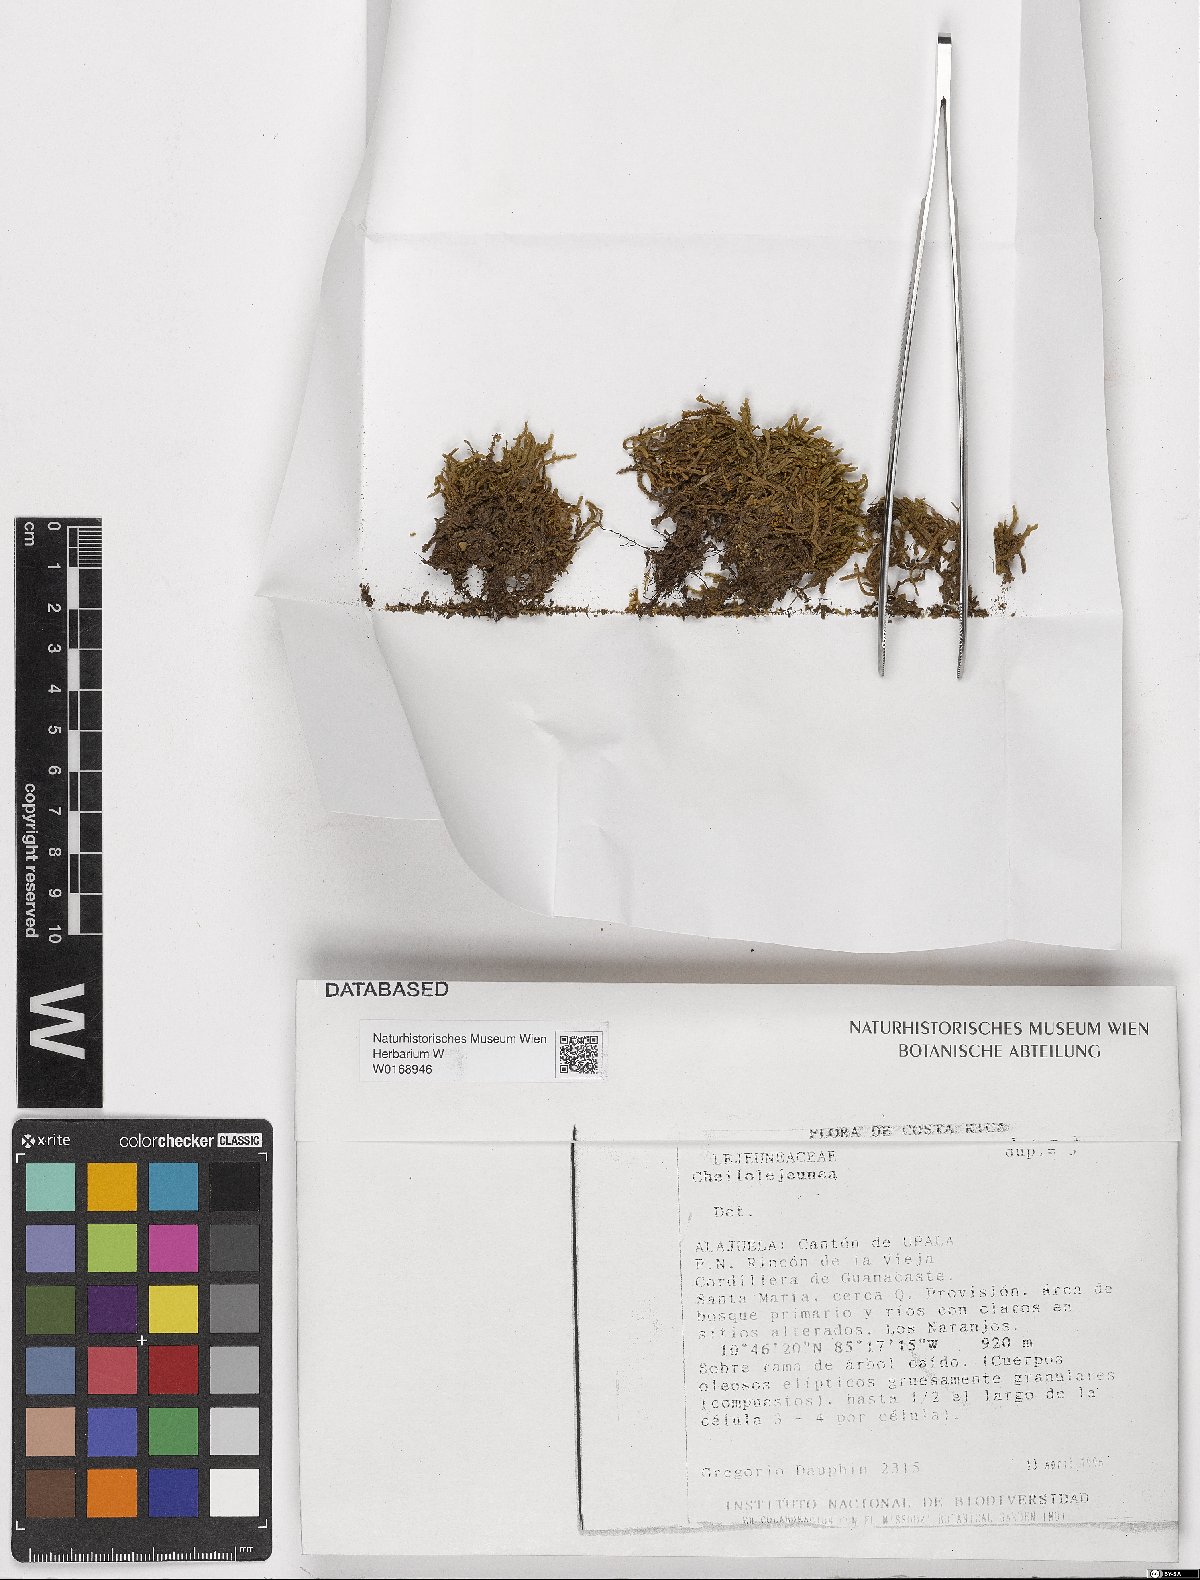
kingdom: Plantae
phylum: Marchantiophyta
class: Jungermanniopsida
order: Porellales
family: Lejeuneaceae
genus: Cheilolejeunea
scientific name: Cheilolejeunea
